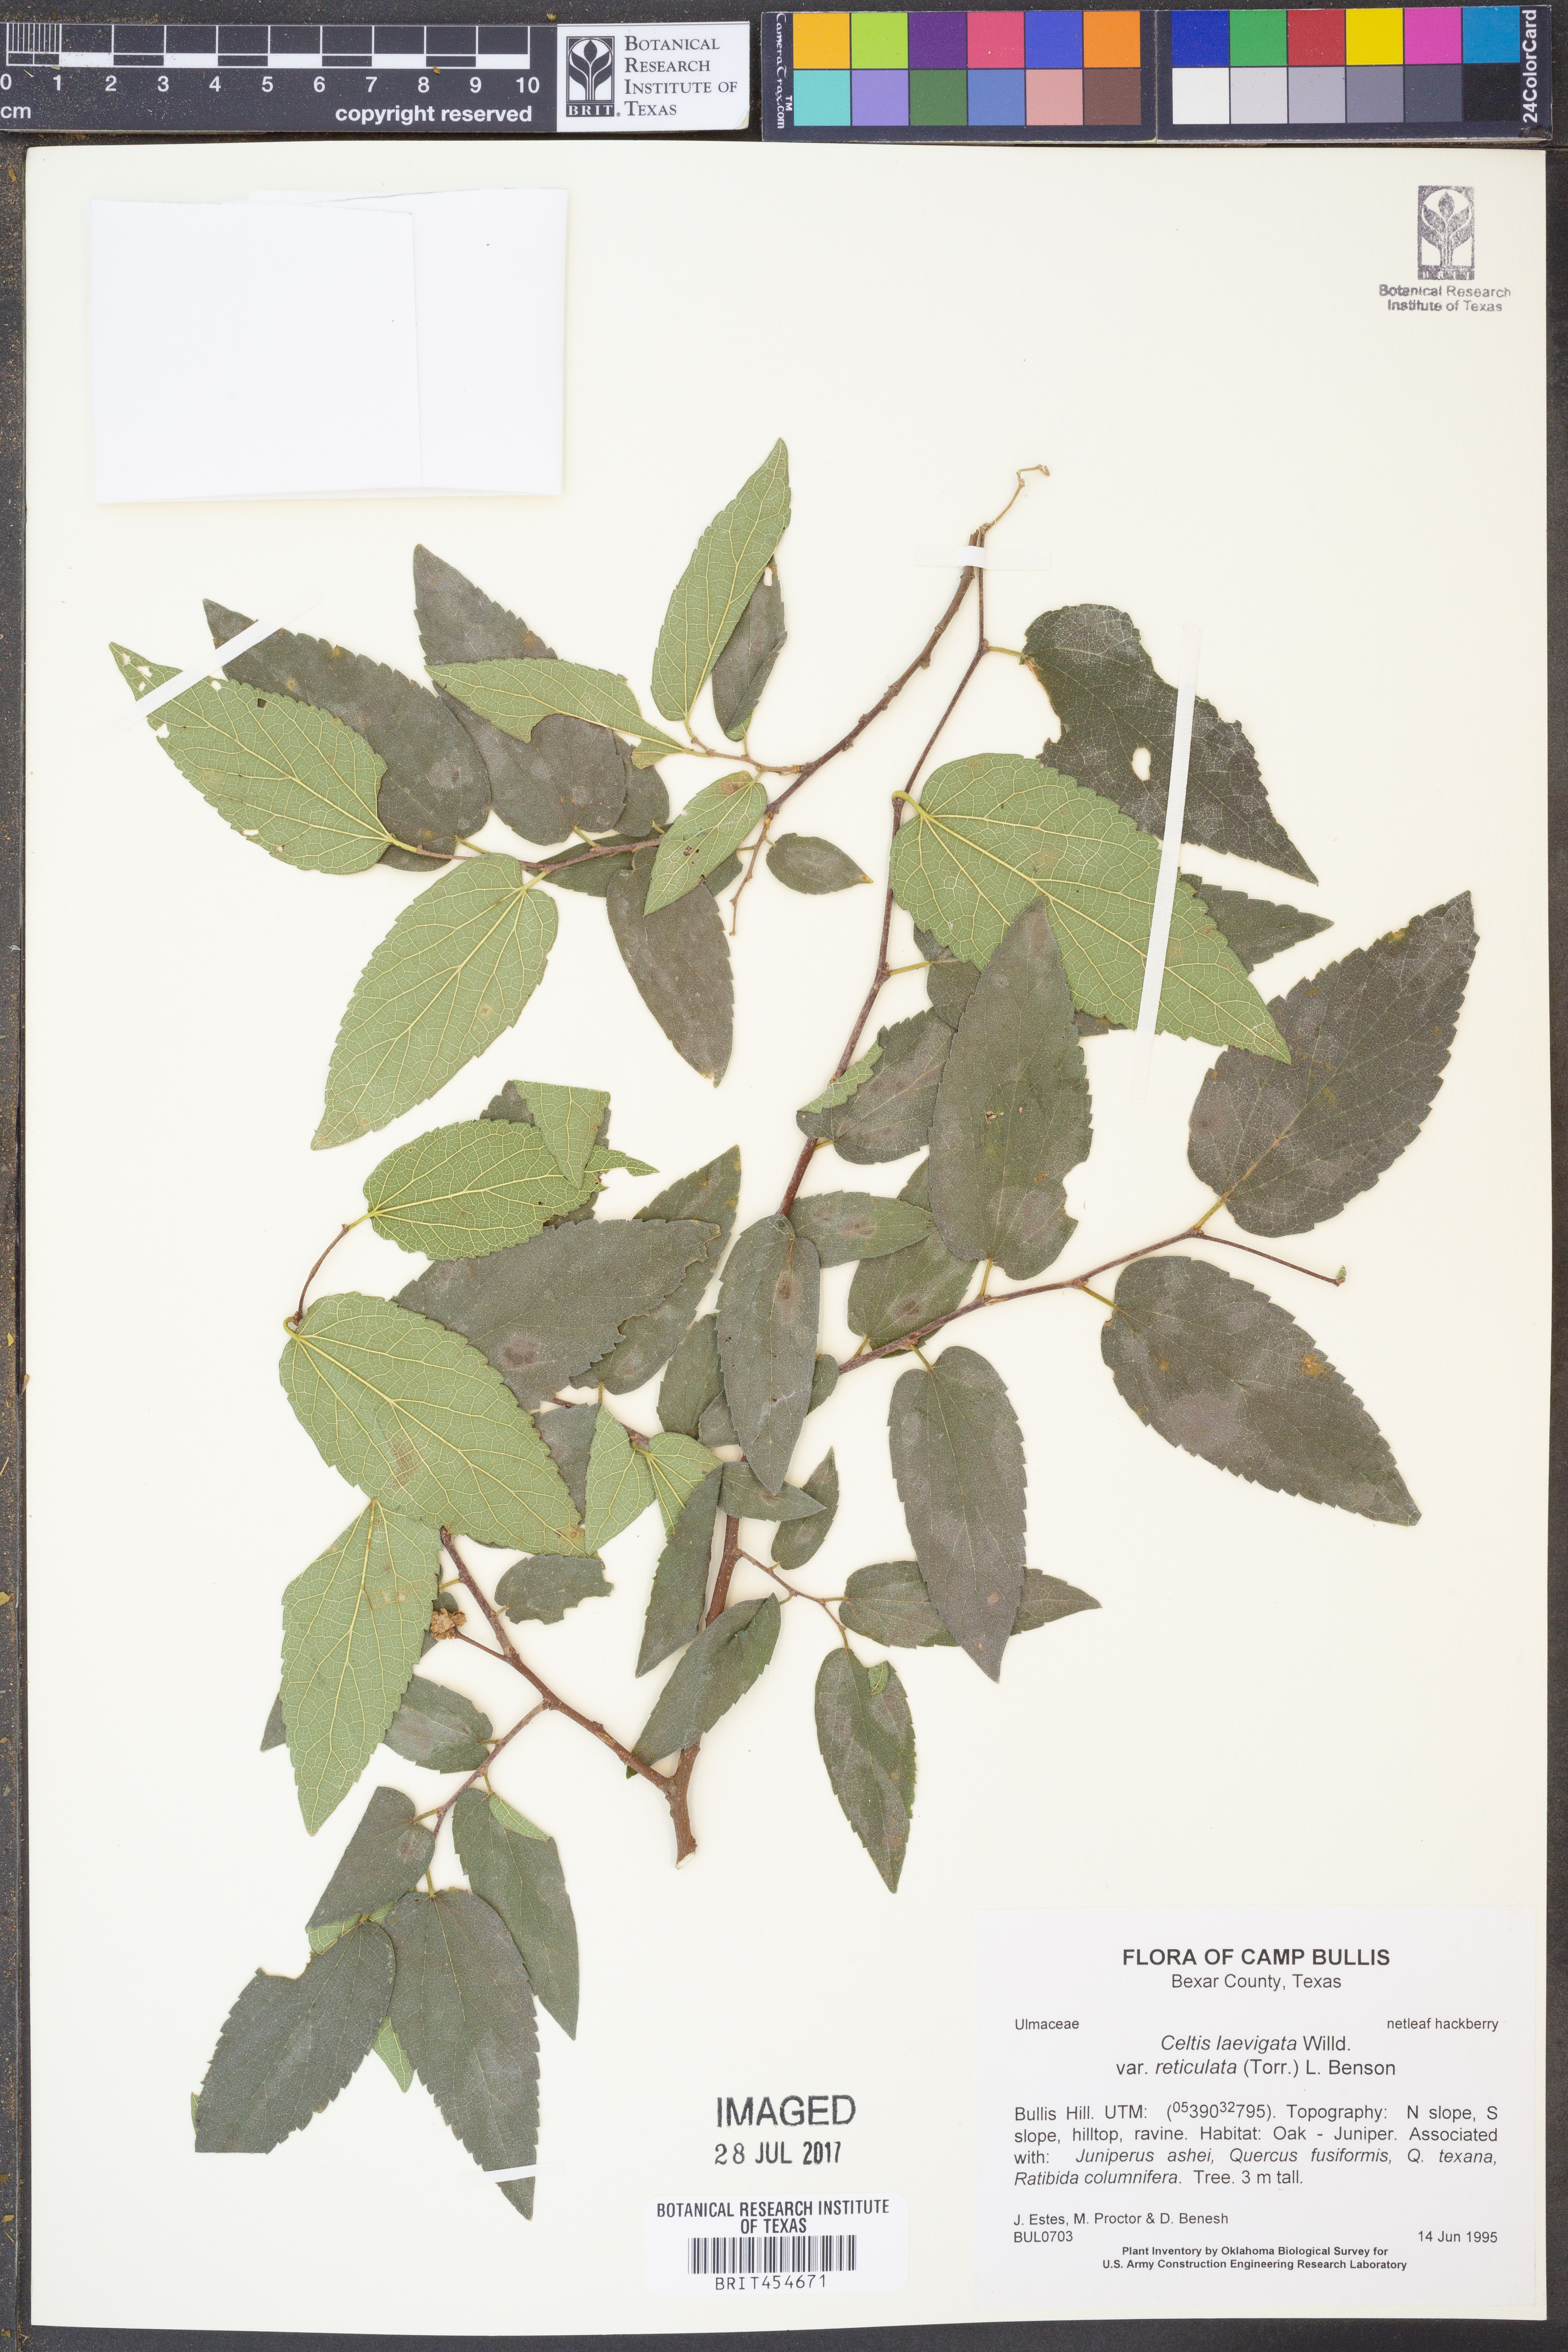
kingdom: Plantae
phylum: Tracheophyta
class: Magnoliopsida
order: Rosales
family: Cannabaceae
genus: Celtis
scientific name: Celtis reticulata
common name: Netleaf hackberry
